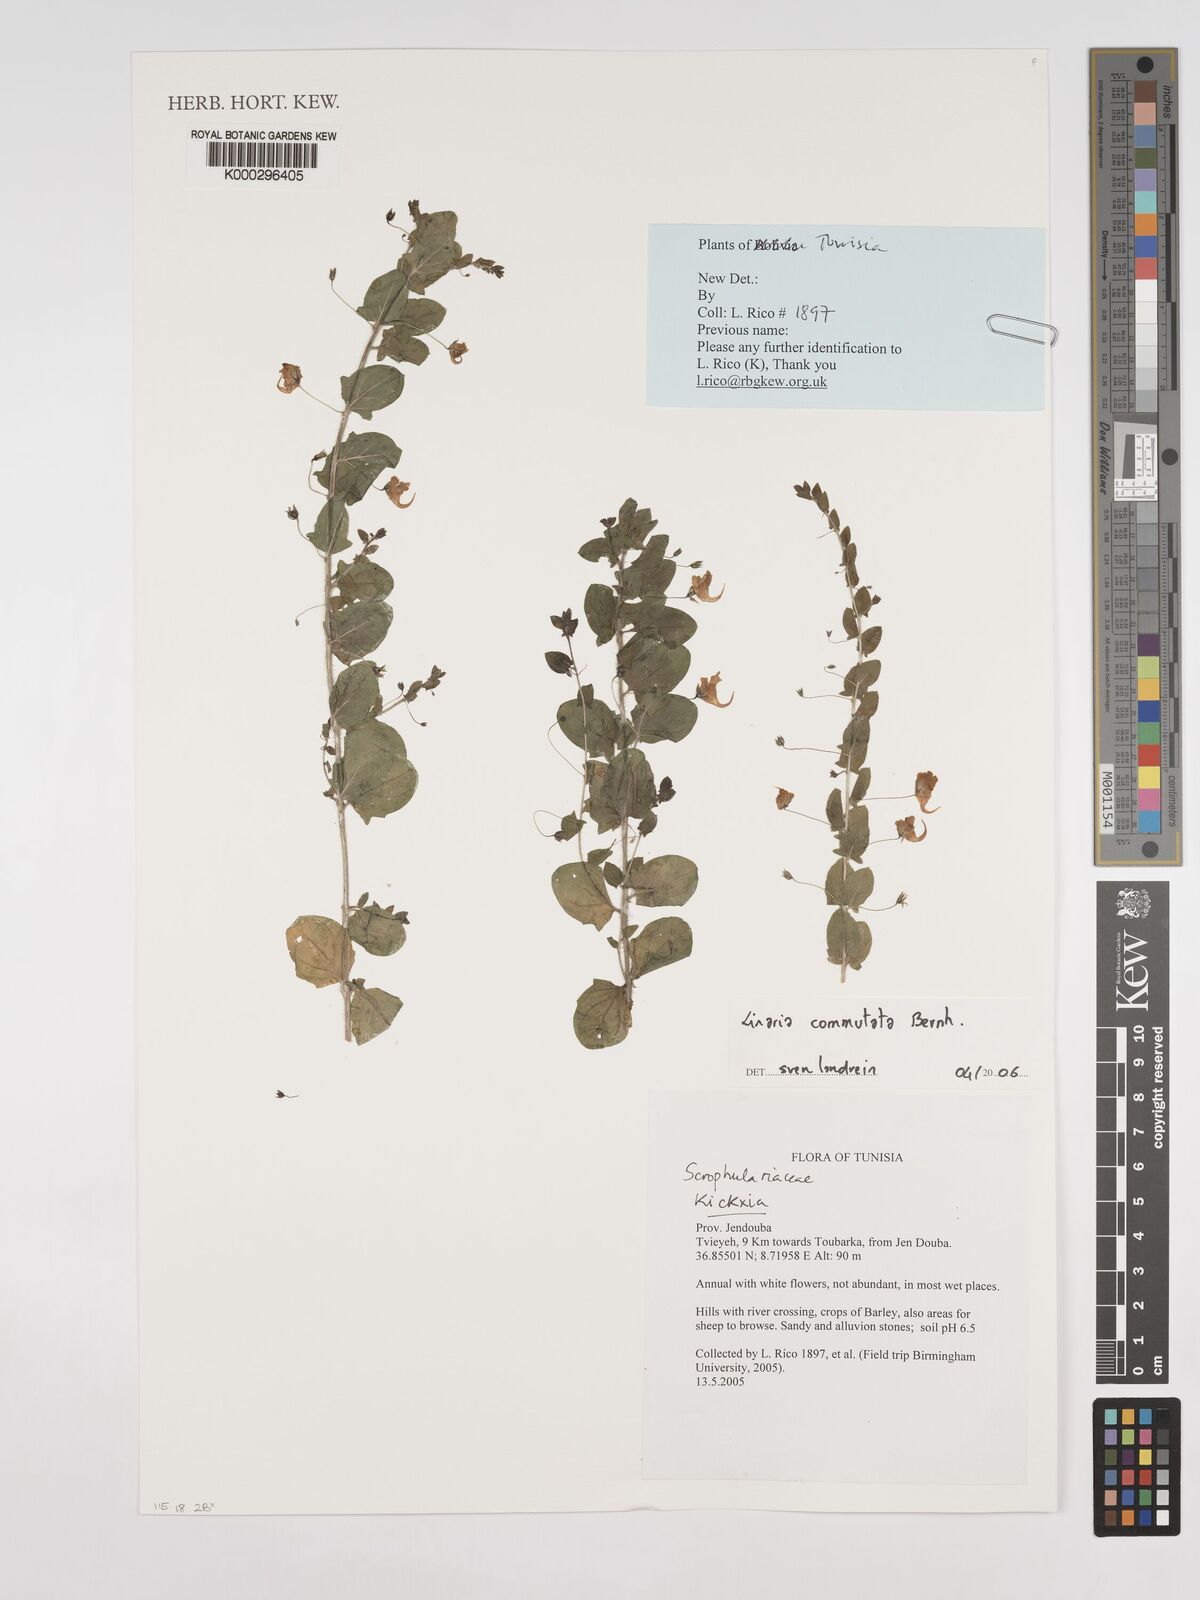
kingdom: Plantae
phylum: Tracheophyta
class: Magnoliopsida
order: Lamiales
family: Plantaginaceae
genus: Linaria
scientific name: Linaria
